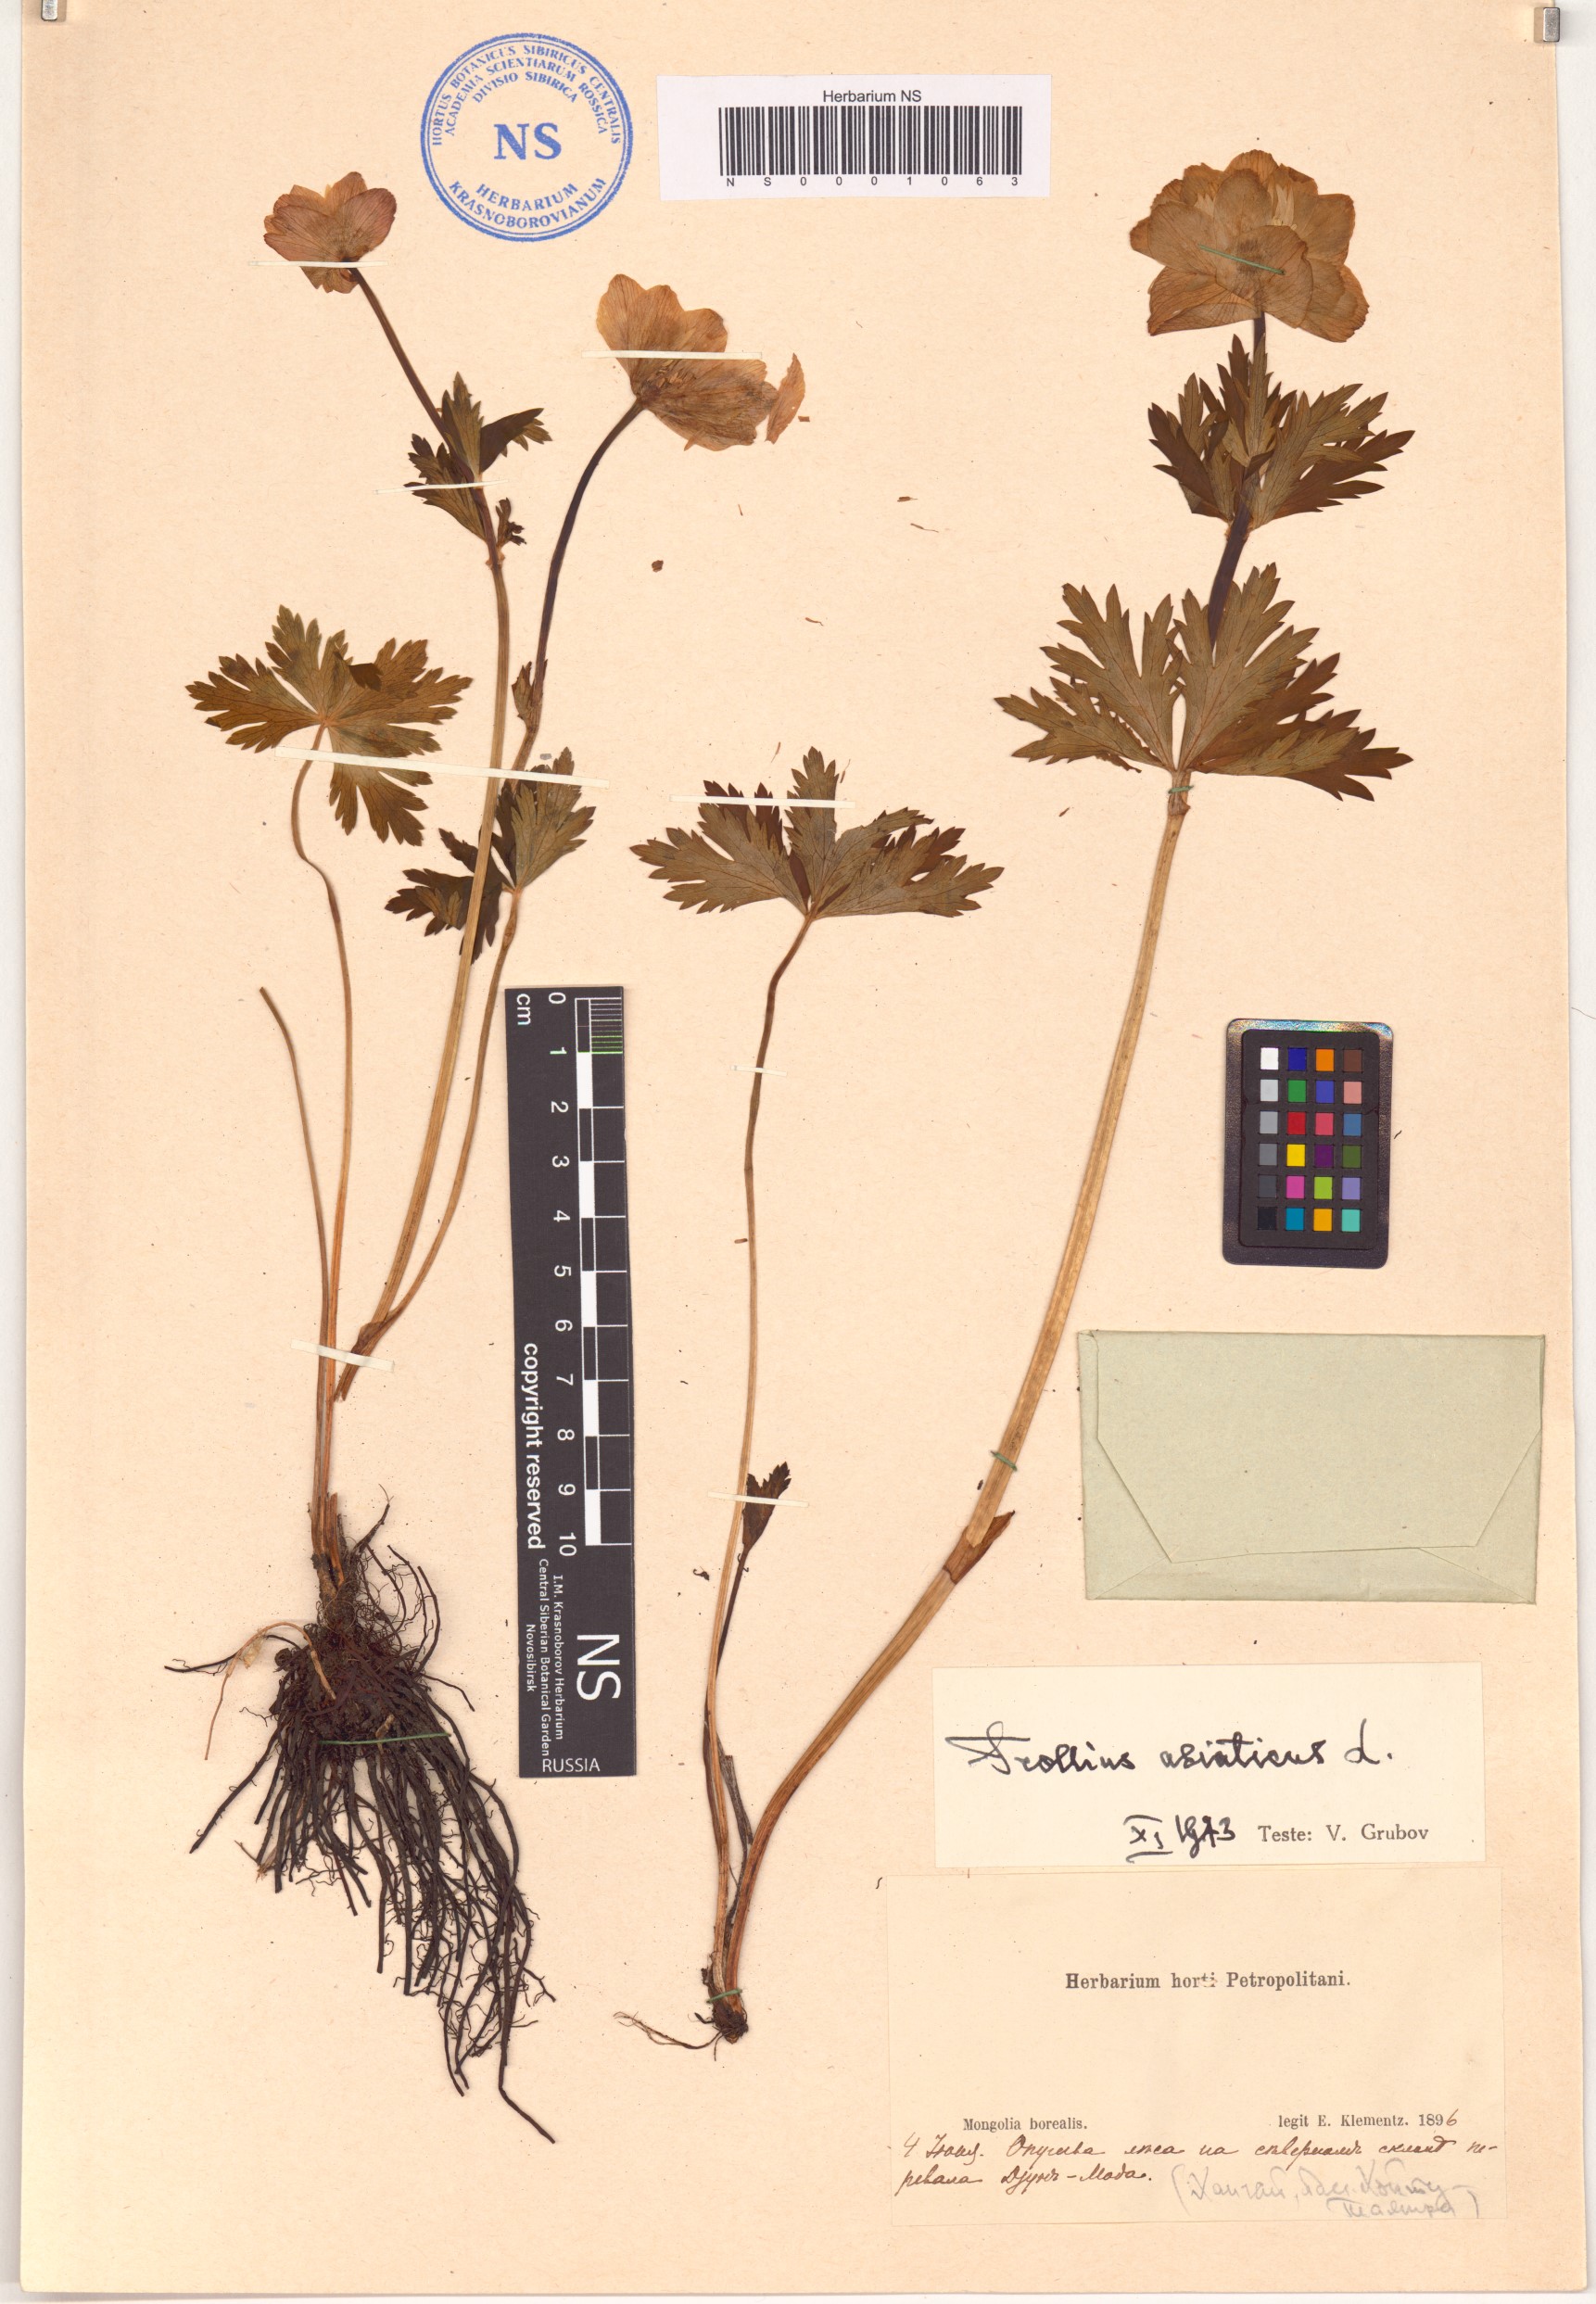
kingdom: Plantae
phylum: Tracheophyta
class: Magnoliopsida
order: Ranunculales
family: Ranunculaceae
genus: Trollius
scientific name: Trollius asiaticus
